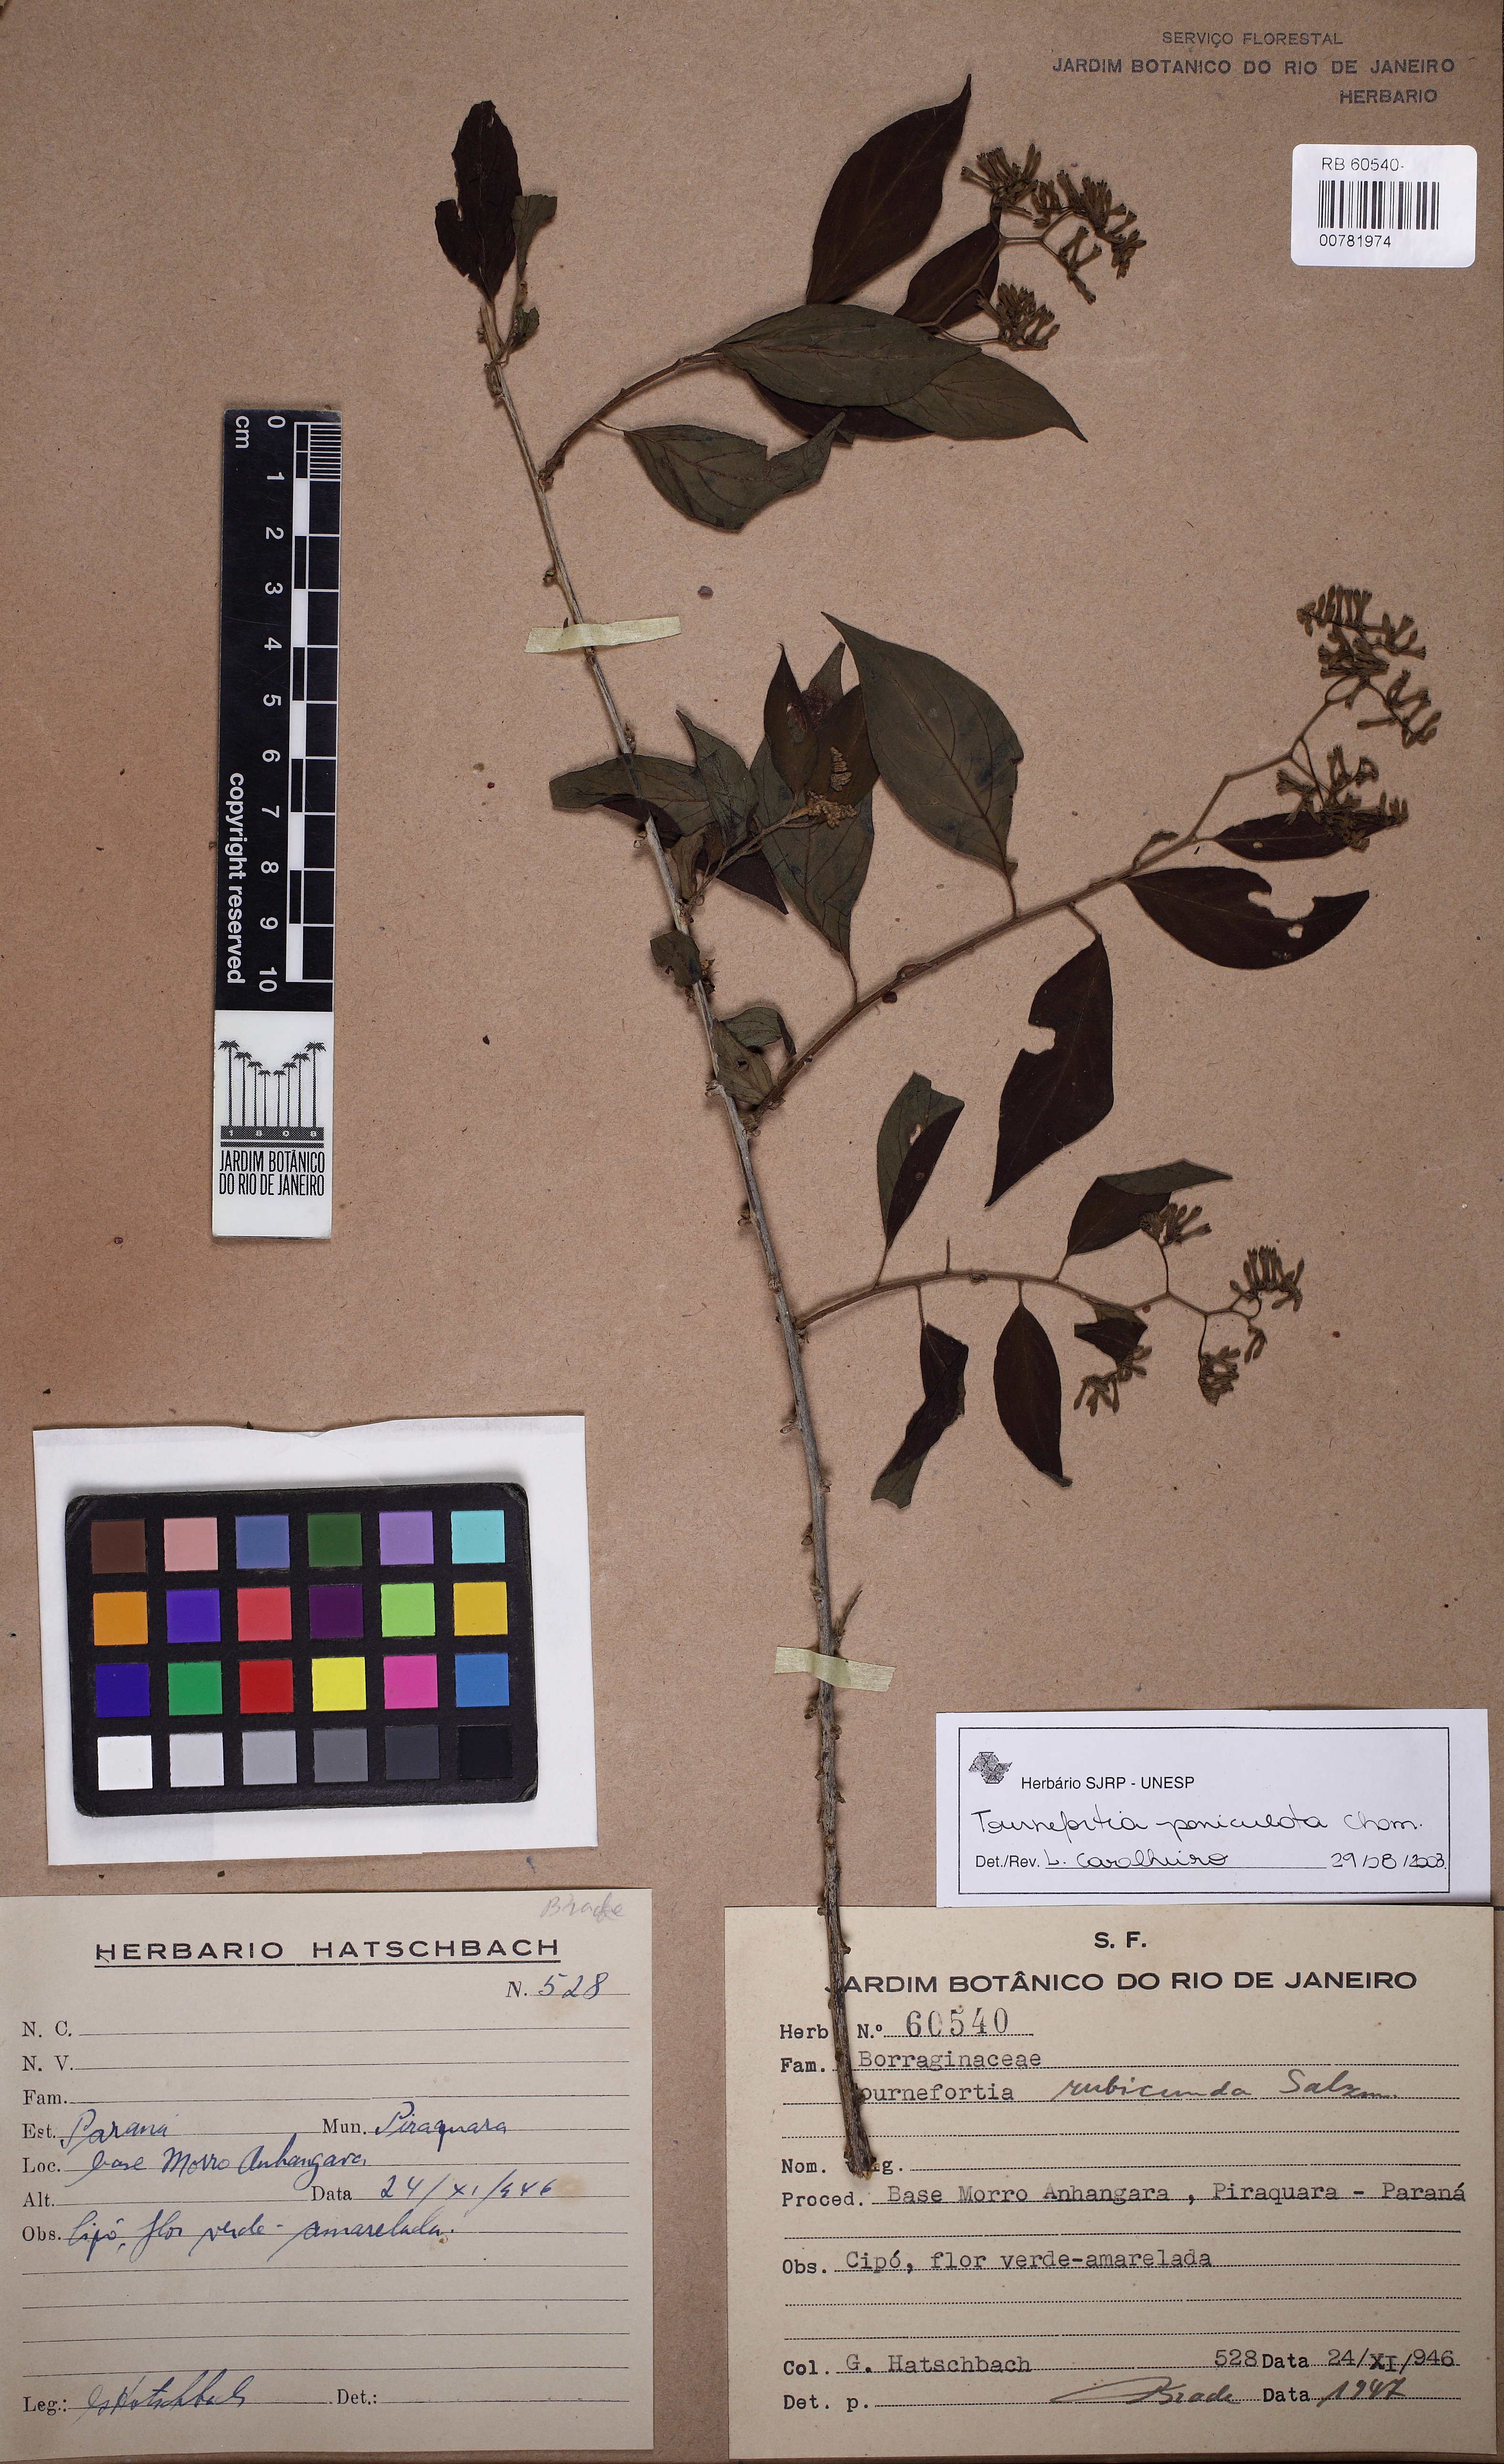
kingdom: Plantae
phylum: Tracheophyta
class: Magnoliopsida
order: Crossosomatales
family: Staphyleaceae
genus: Turpinia
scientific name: Turpinia occidentalis
